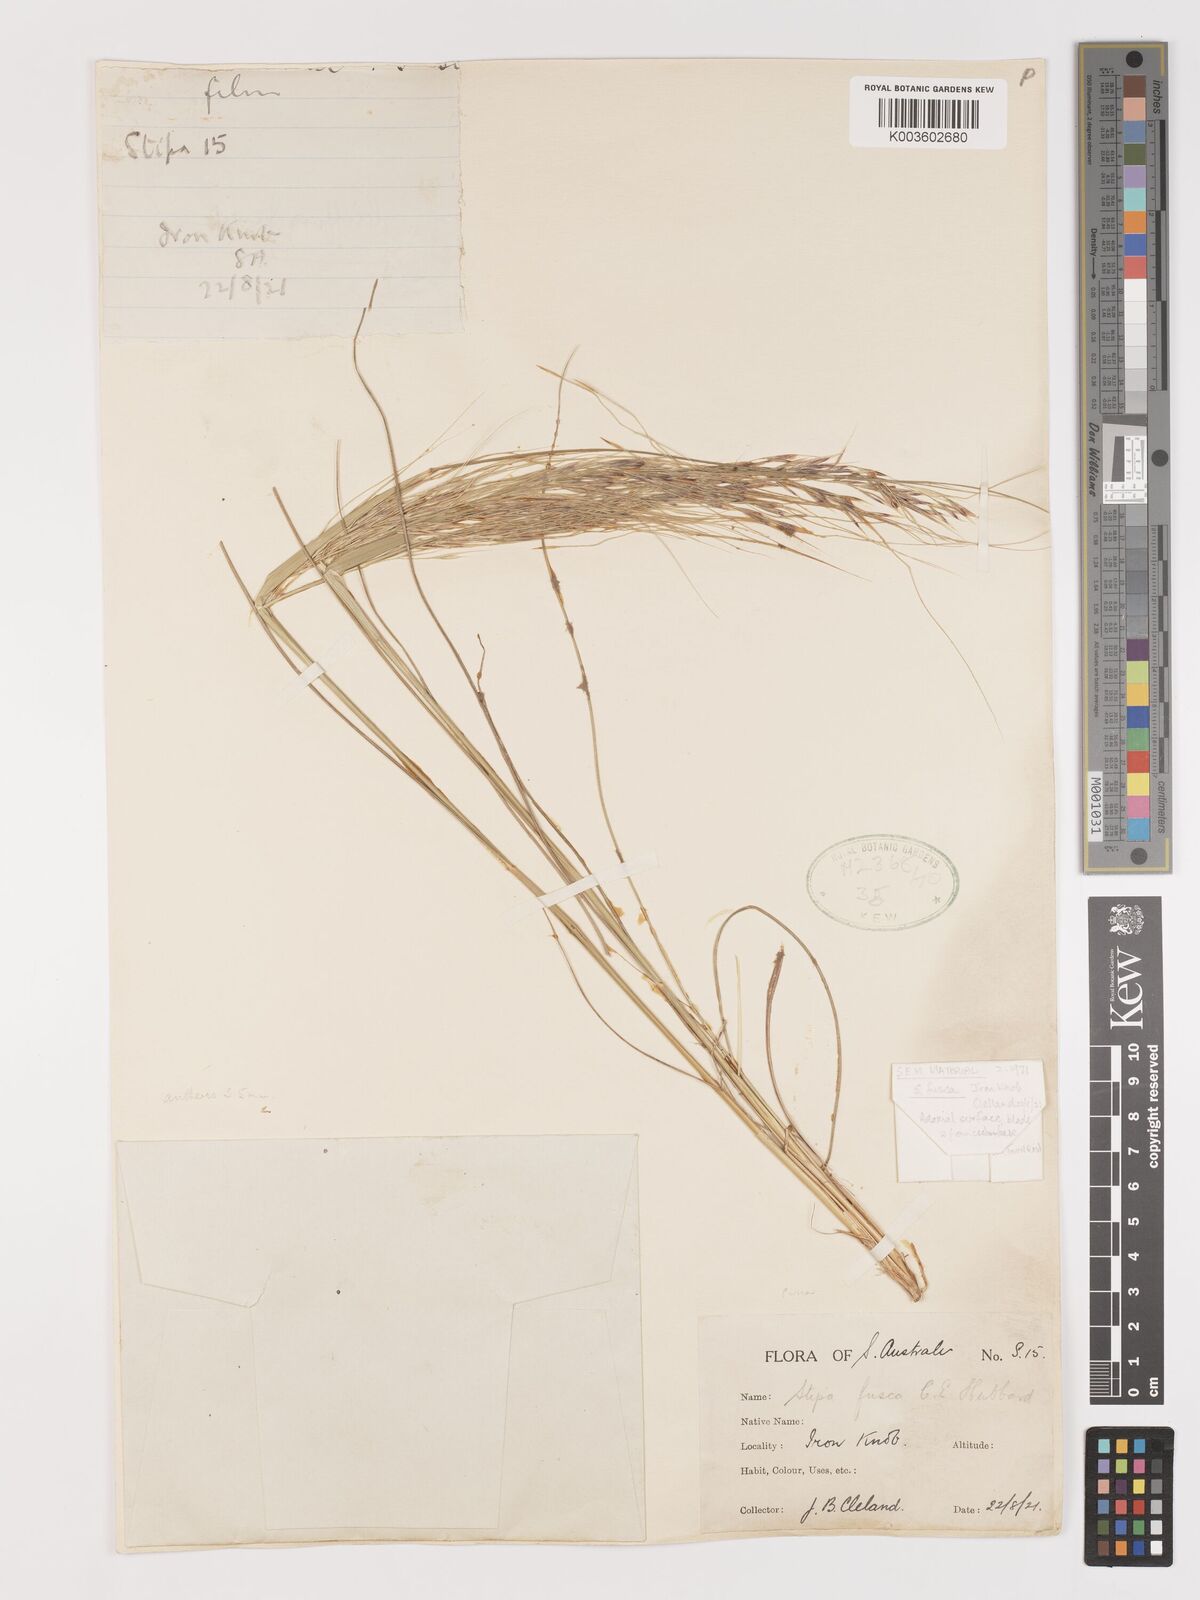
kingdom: Plantae
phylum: Tracheophyta
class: Liliopsida
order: Poales
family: Poaceae
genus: Austrostipa
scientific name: Austrostipa eremophila
